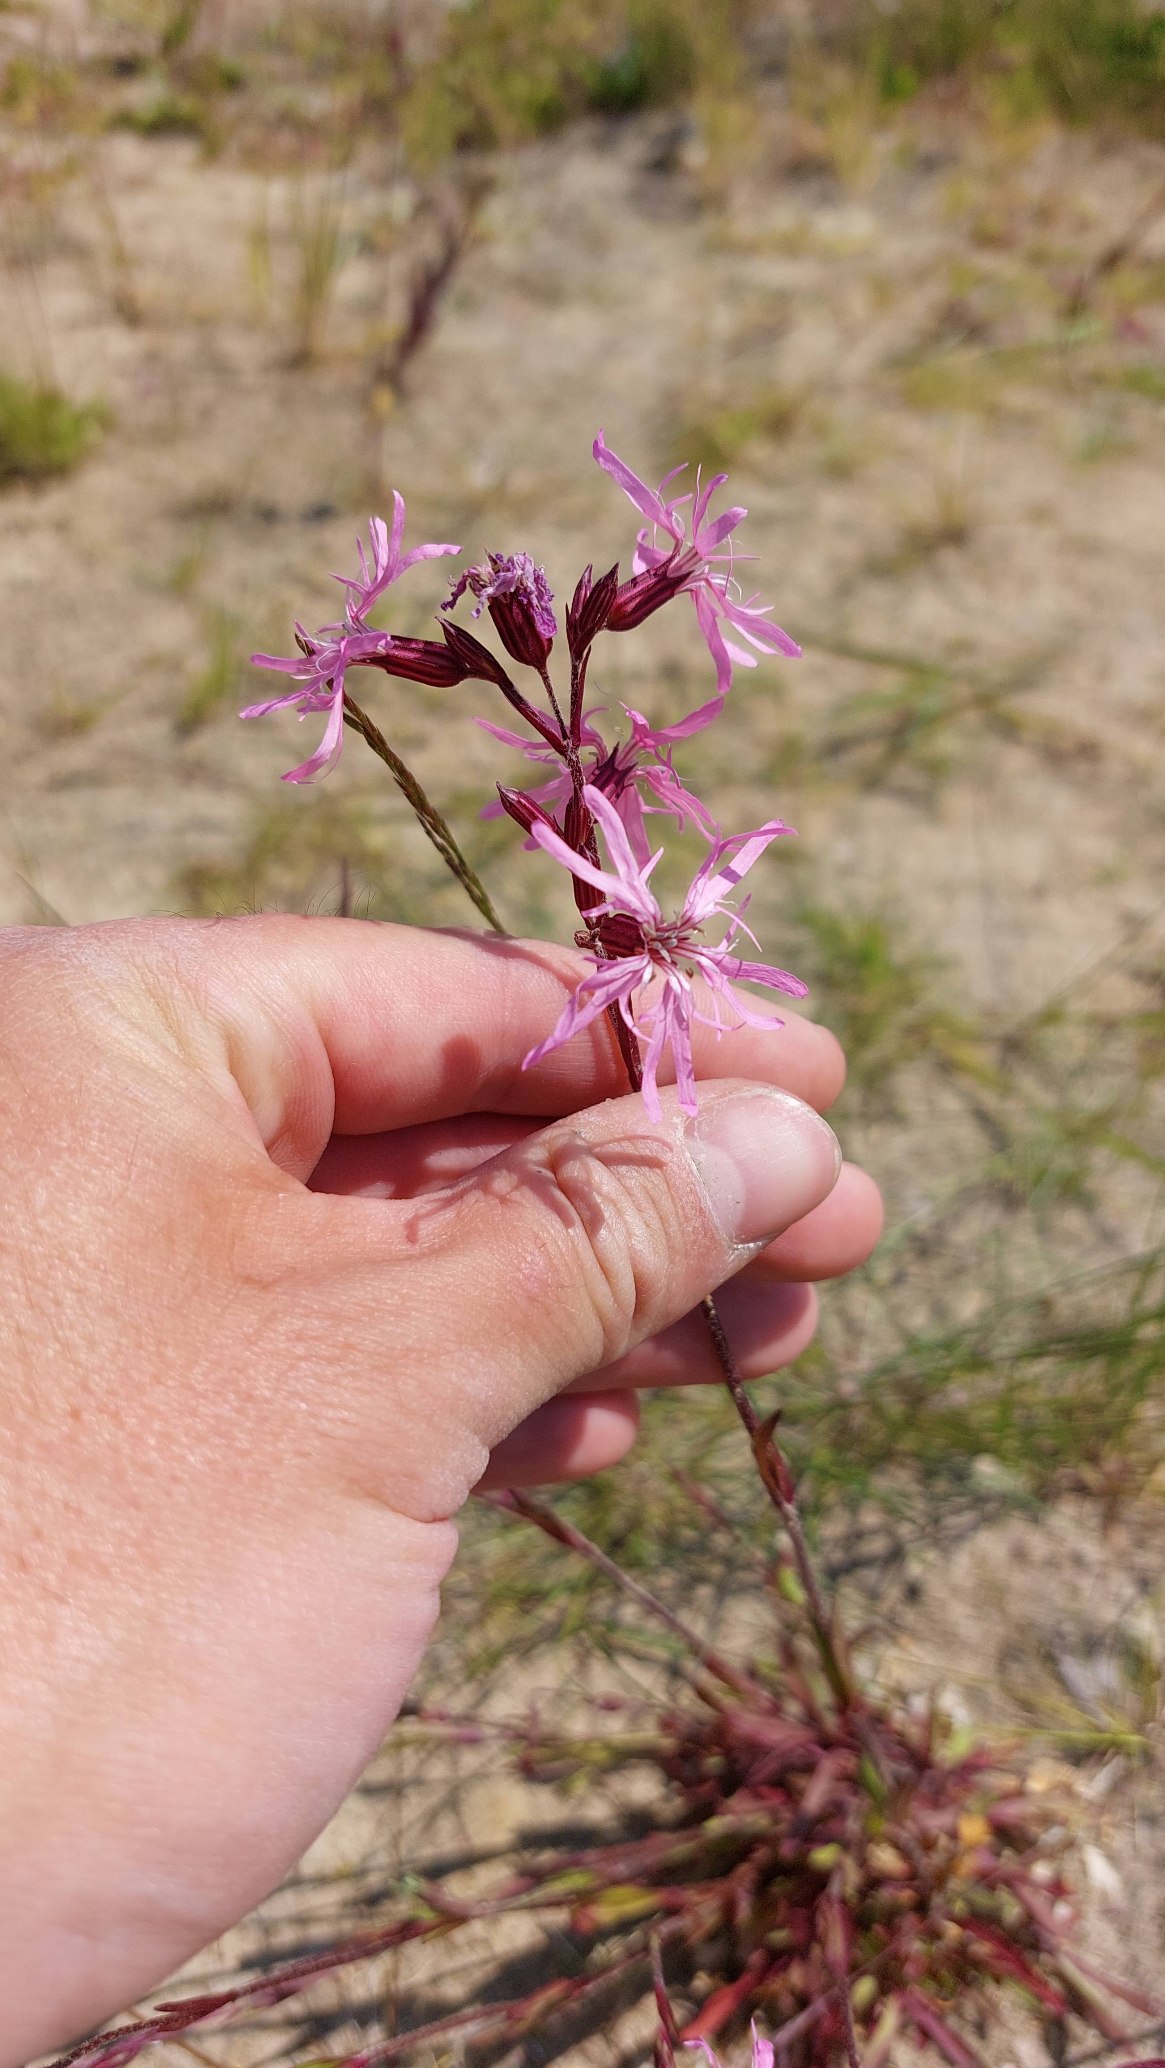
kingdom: Plantae
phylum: Tracheophyta
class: Magnoliopsida
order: Caryophyllales
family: Caryophyllaceae
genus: Silene
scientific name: Silene flos-cuculi
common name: Trævlekrone
